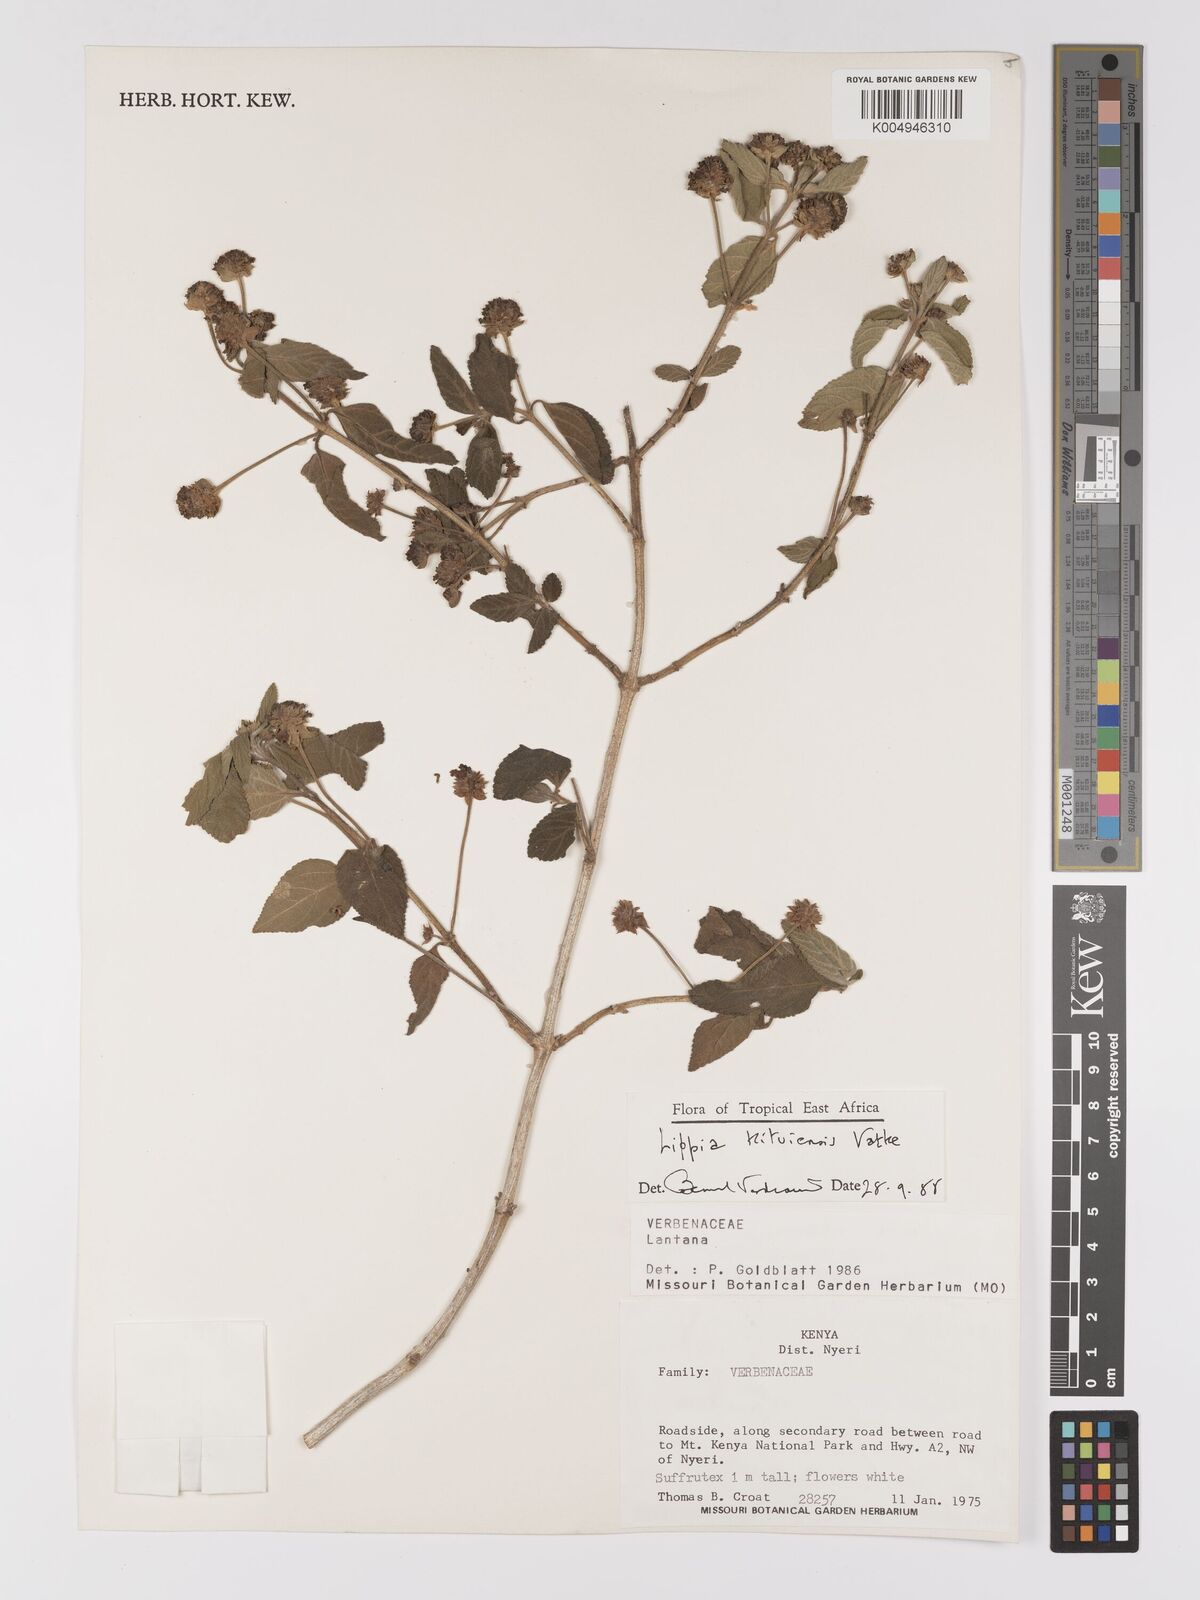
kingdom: Plantae
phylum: Tracheophyta
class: Magnoliopsida
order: Lamiales
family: Verbenaceae
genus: Lippia
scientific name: Lippia kituiensis
